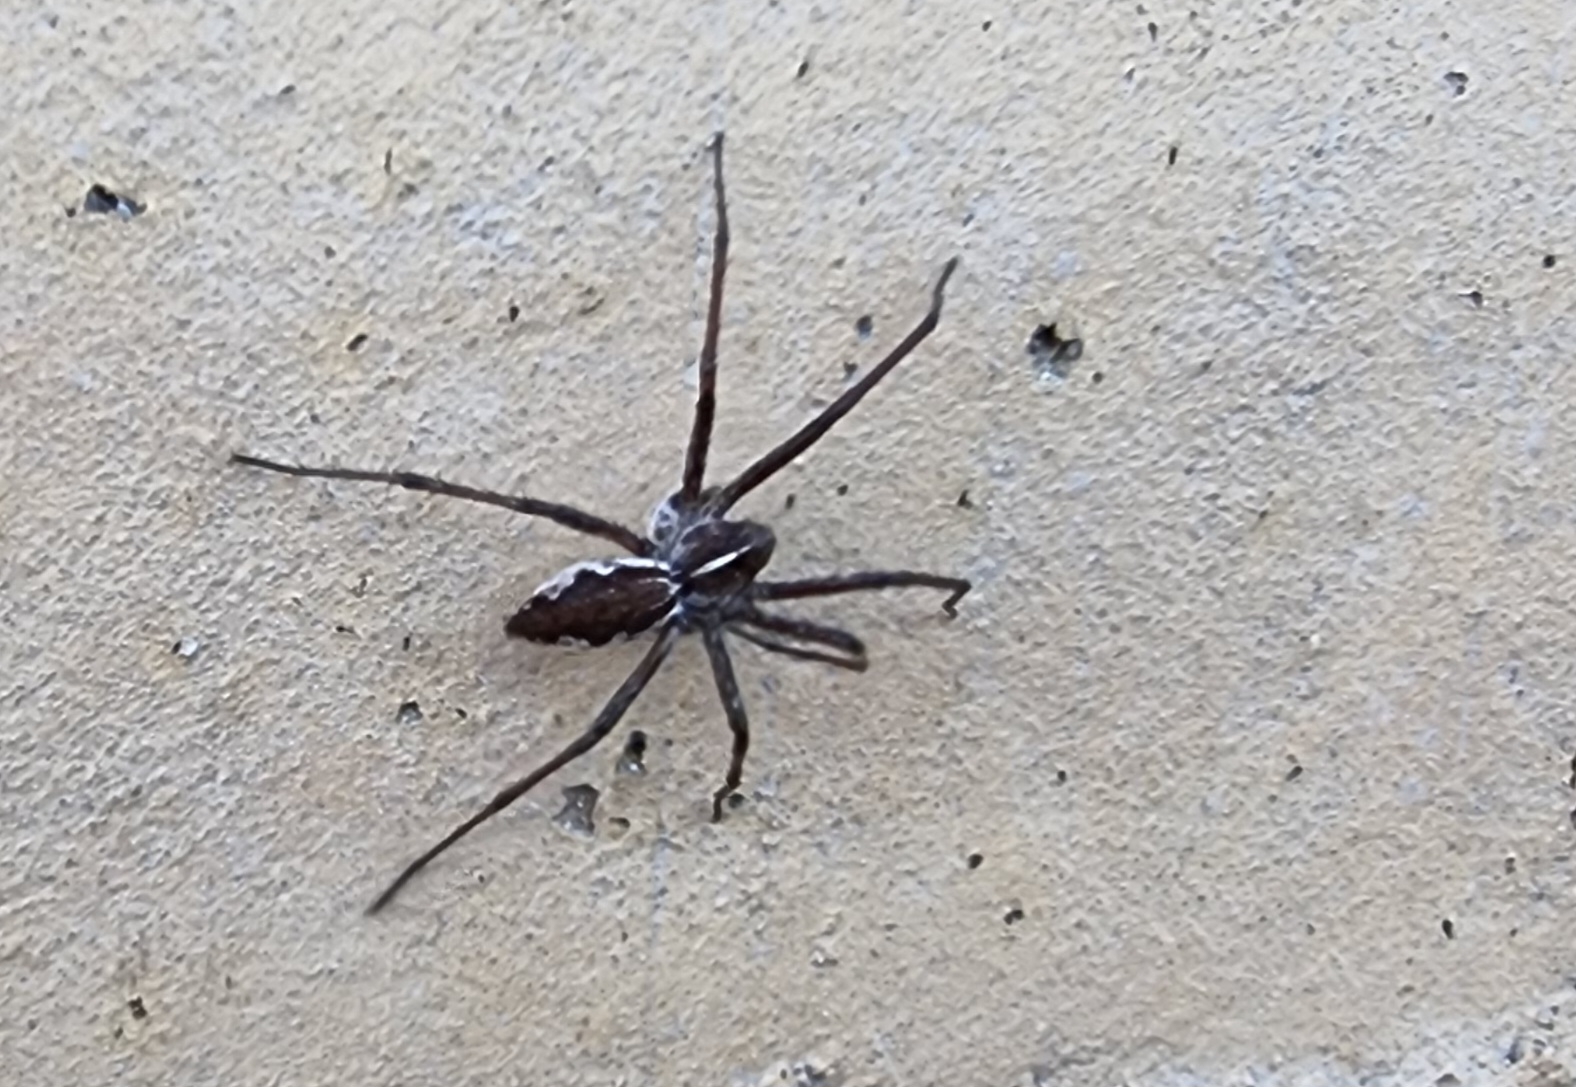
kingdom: Animalia
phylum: Arthropoda
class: Arachnida
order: Araneae
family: Pisauridae
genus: Pisaura
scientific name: Pisaura mirabilis
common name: Almindelig rovedderkop
